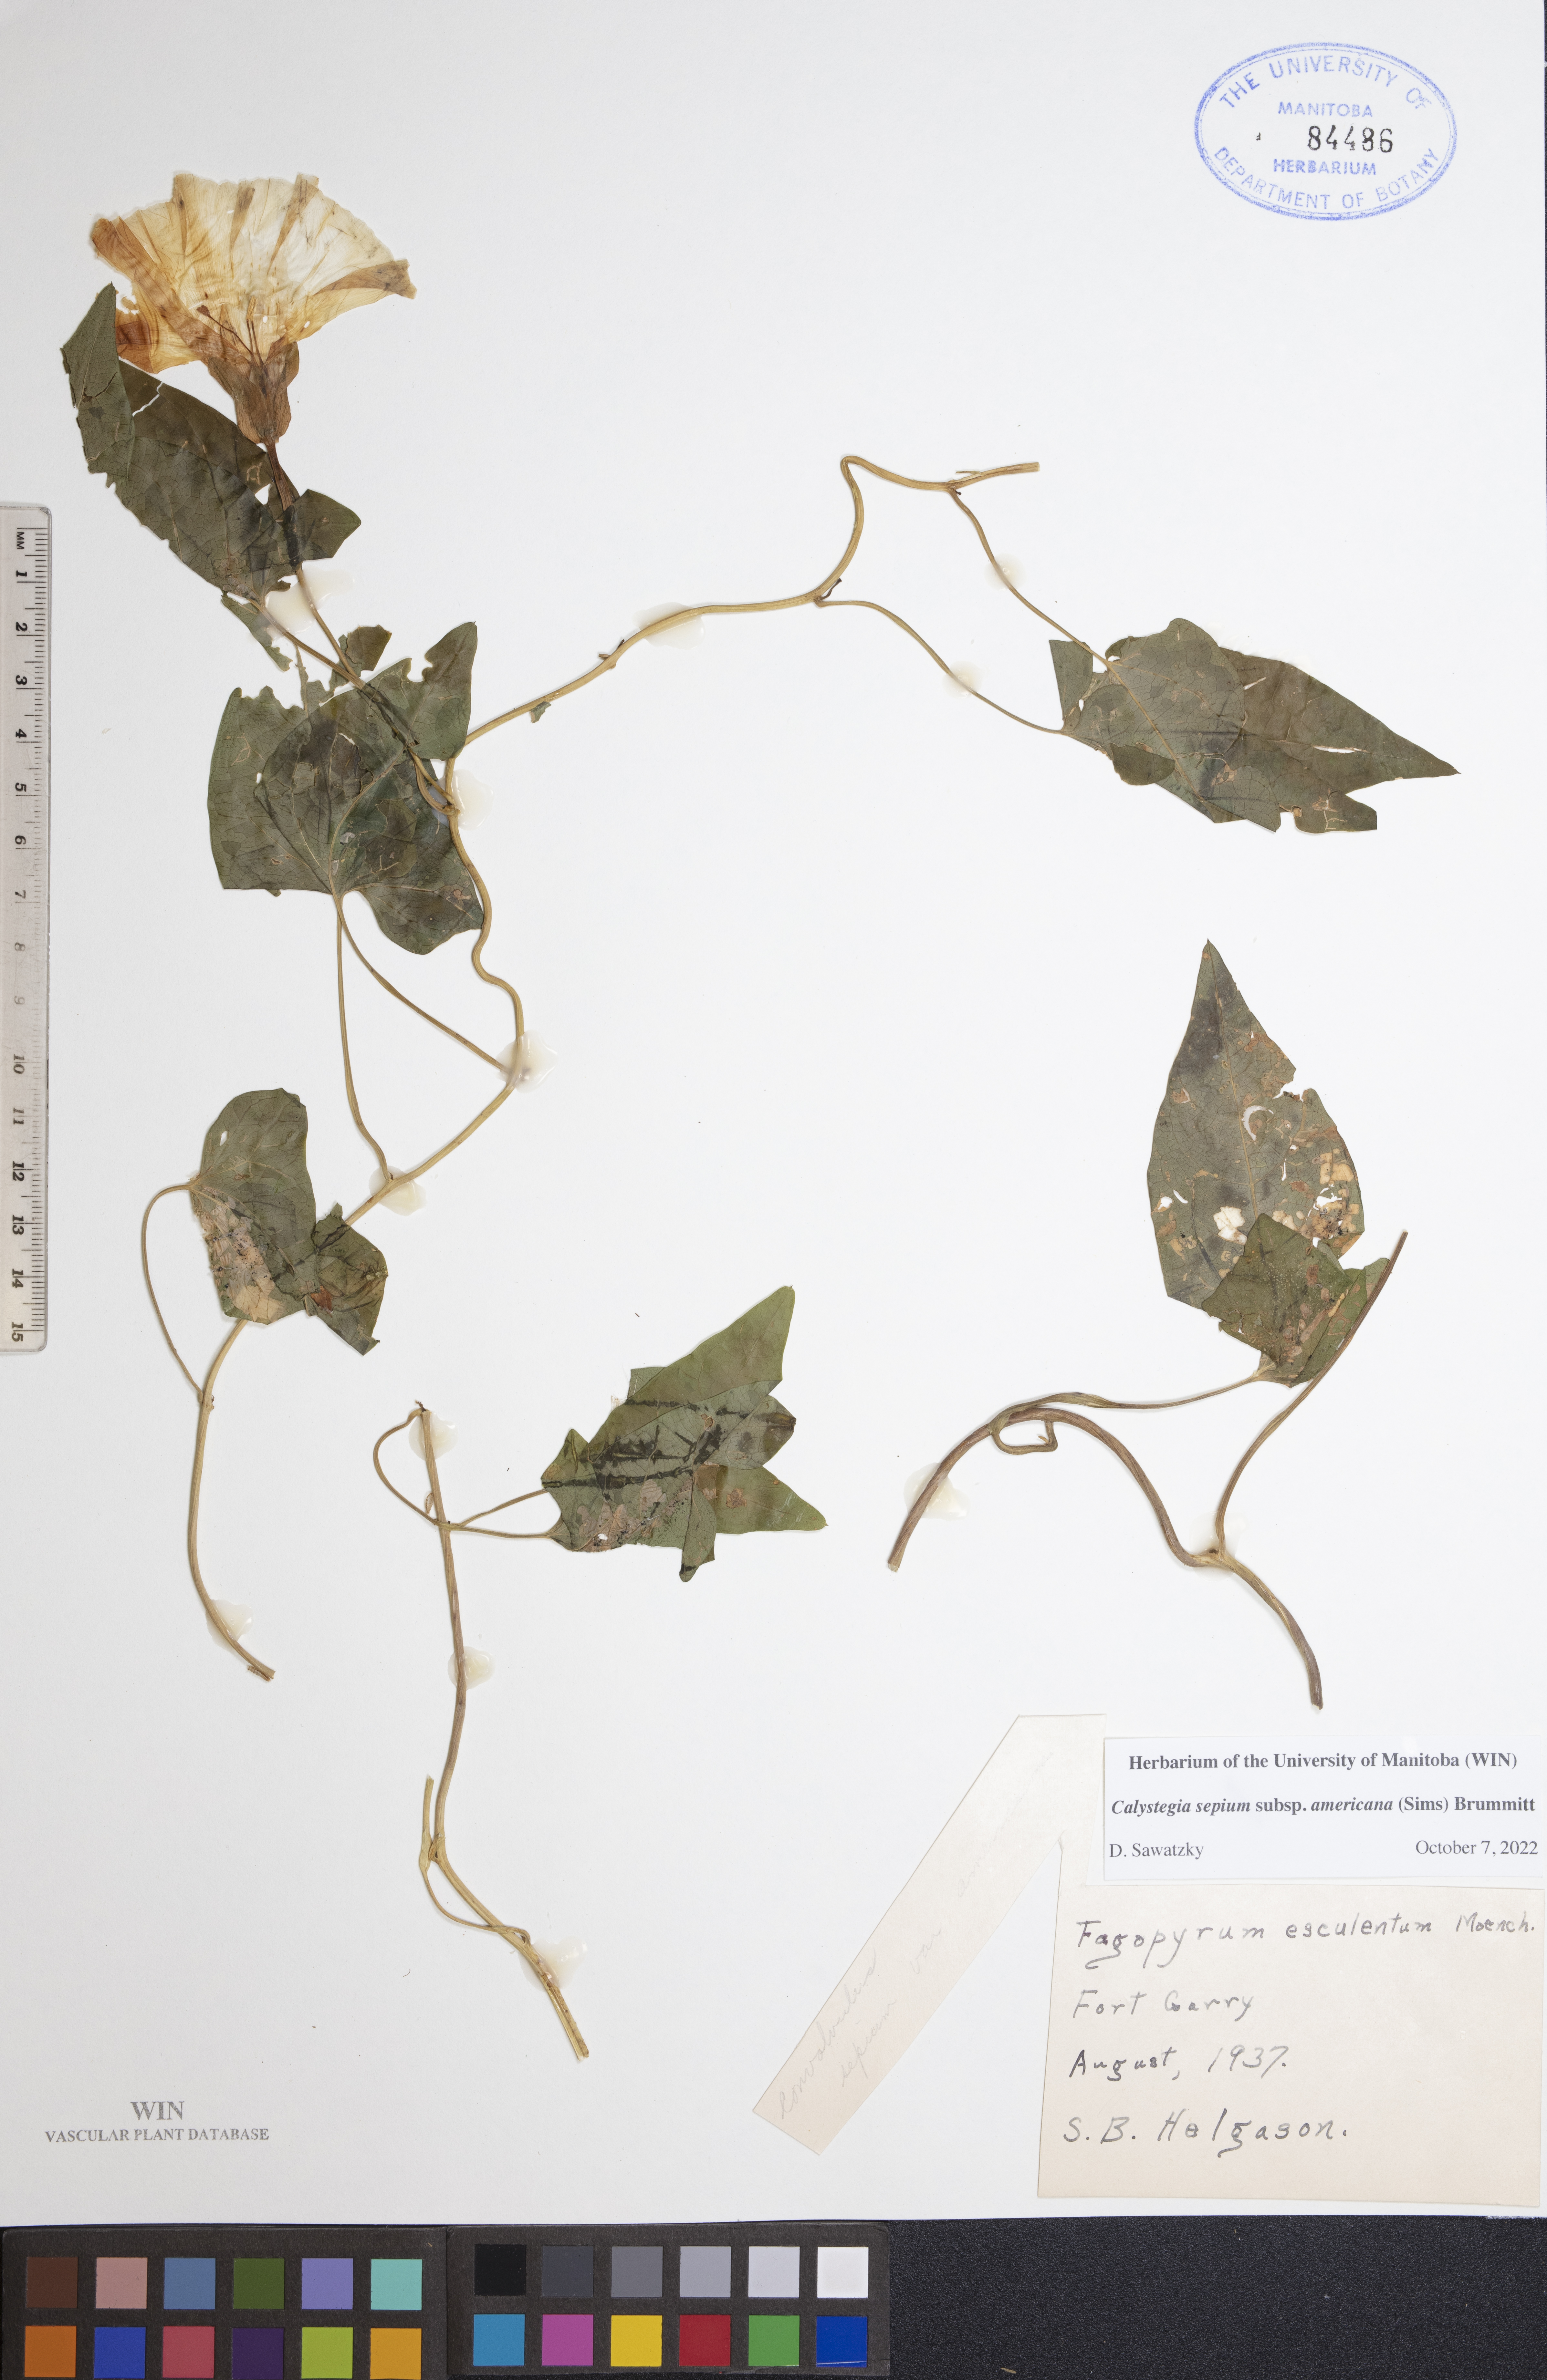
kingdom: Plantae
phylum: Tracheophyta
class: Magnoliopsida
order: Solanales
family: Convolvulaceae
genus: Calystegia
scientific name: Calystegia sepium
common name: Hedge bindweed
